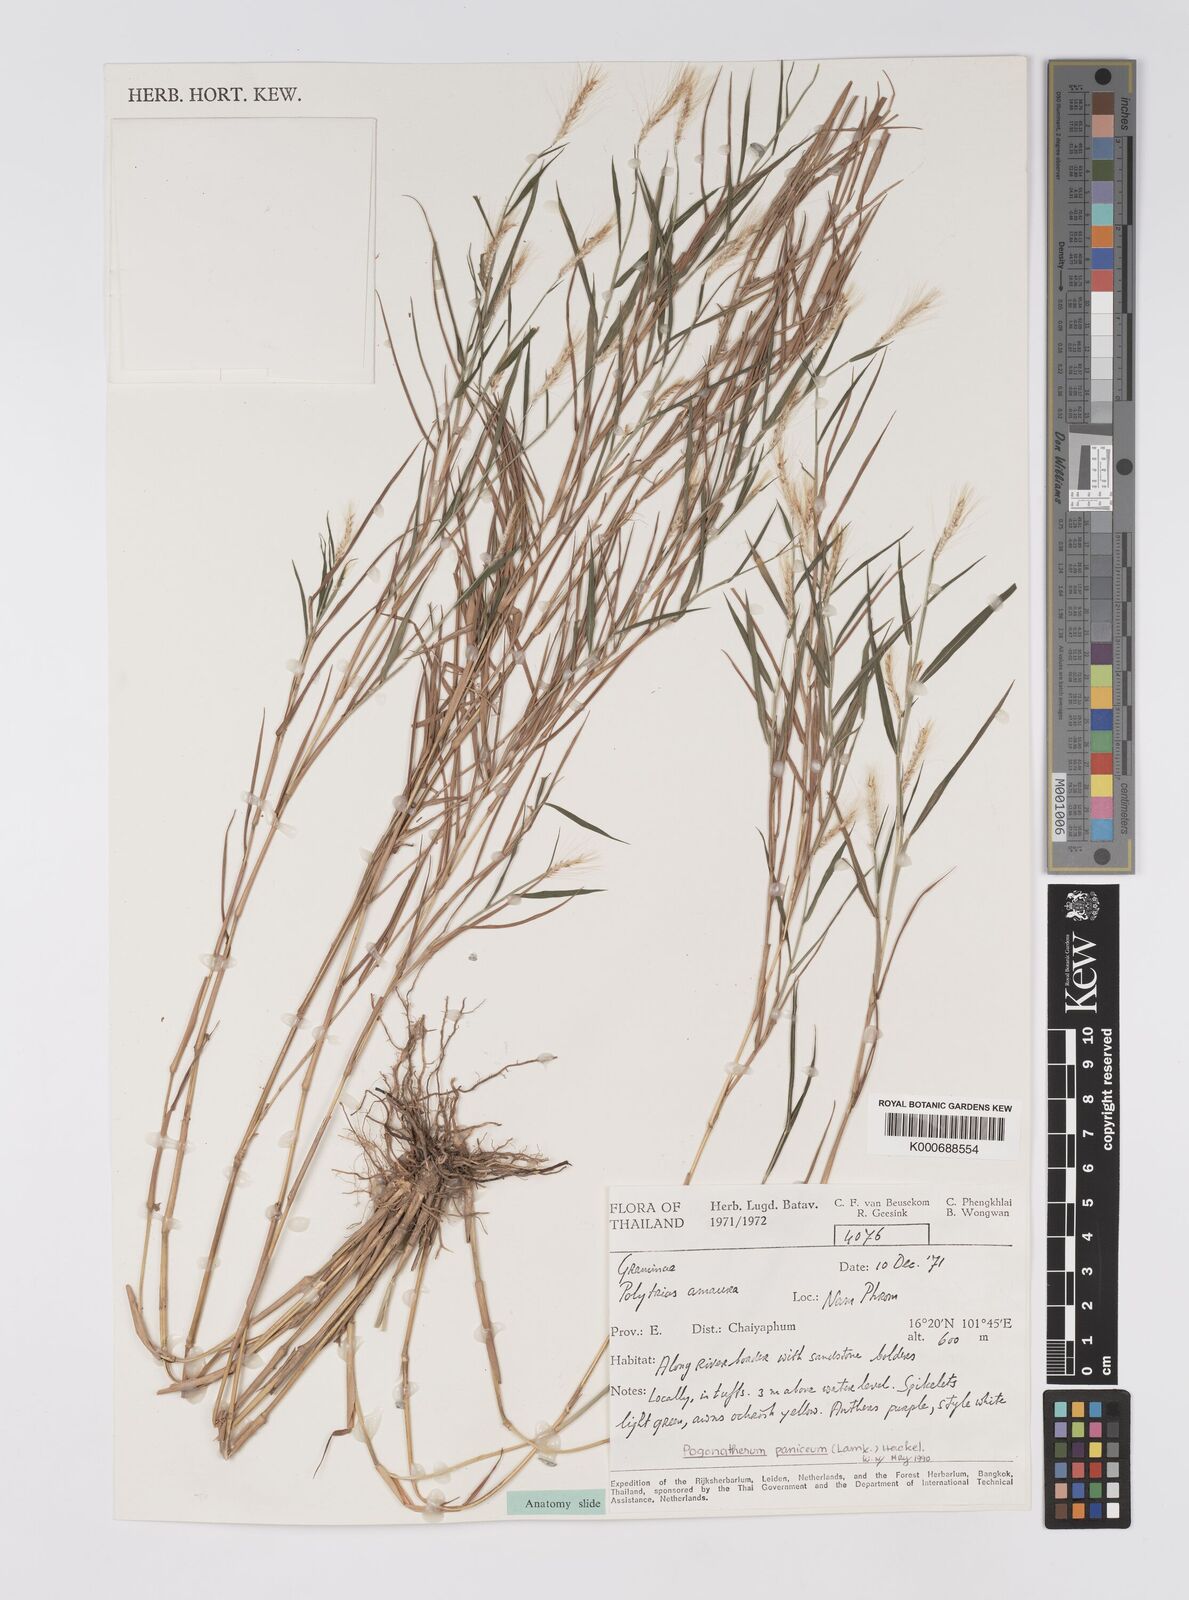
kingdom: Plantae
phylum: Tracheophyta
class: Liliopsida
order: Poales
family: Poaceae
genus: Pogonatherum
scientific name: Pogonatherum paniceum
